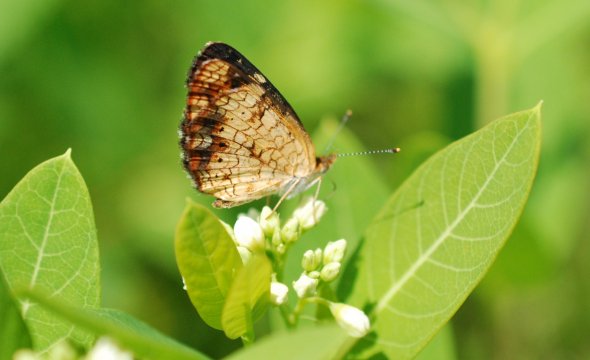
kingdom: Animalia
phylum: Arthropoda
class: Insecta
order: Lepidoptera
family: Nymphalidae
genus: Phyciodes
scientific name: Phyciodes tharos
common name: Pearl Crescent
